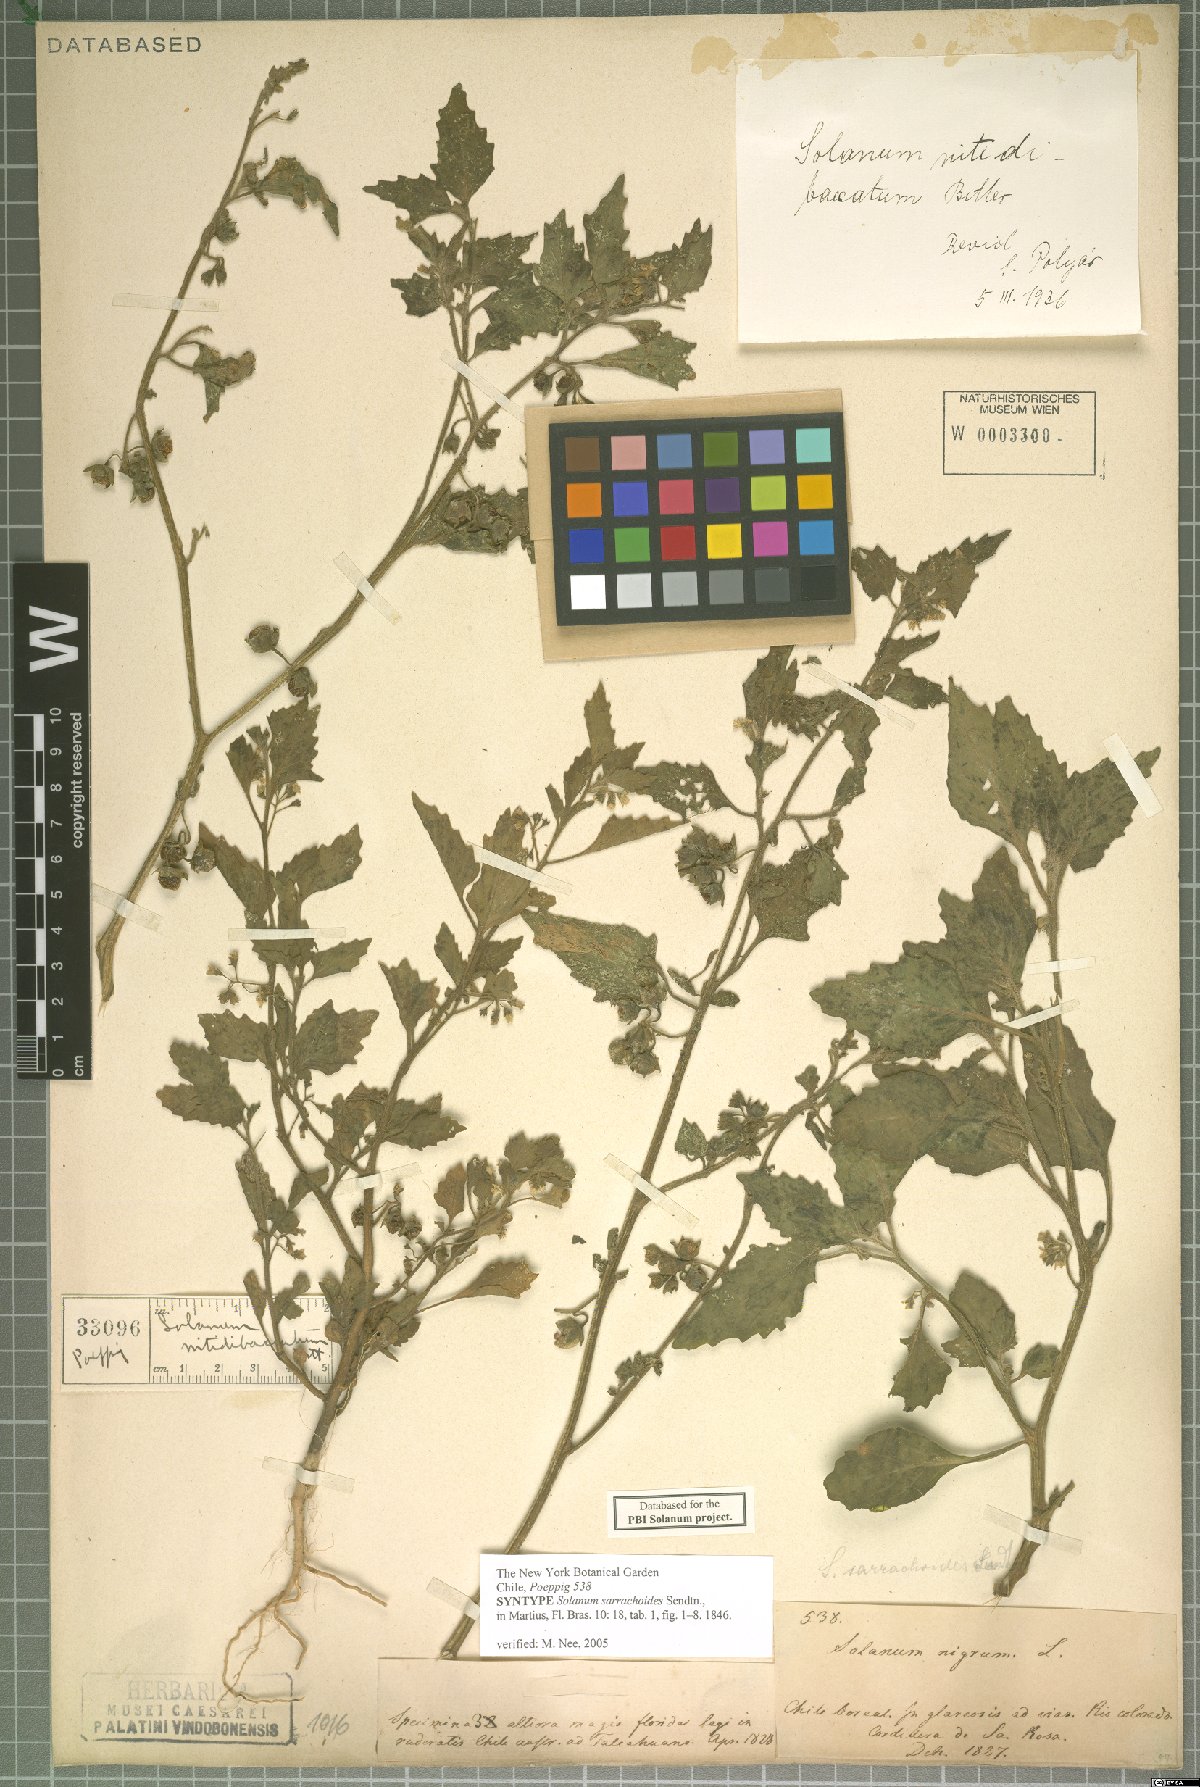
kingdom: Plantae
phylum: Tracheophyta
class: Magnoliopsida
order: Solanales
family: Solanaceae
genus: Solanum
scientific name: Solanum nitidibaccatum
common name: Hairy nightshade
